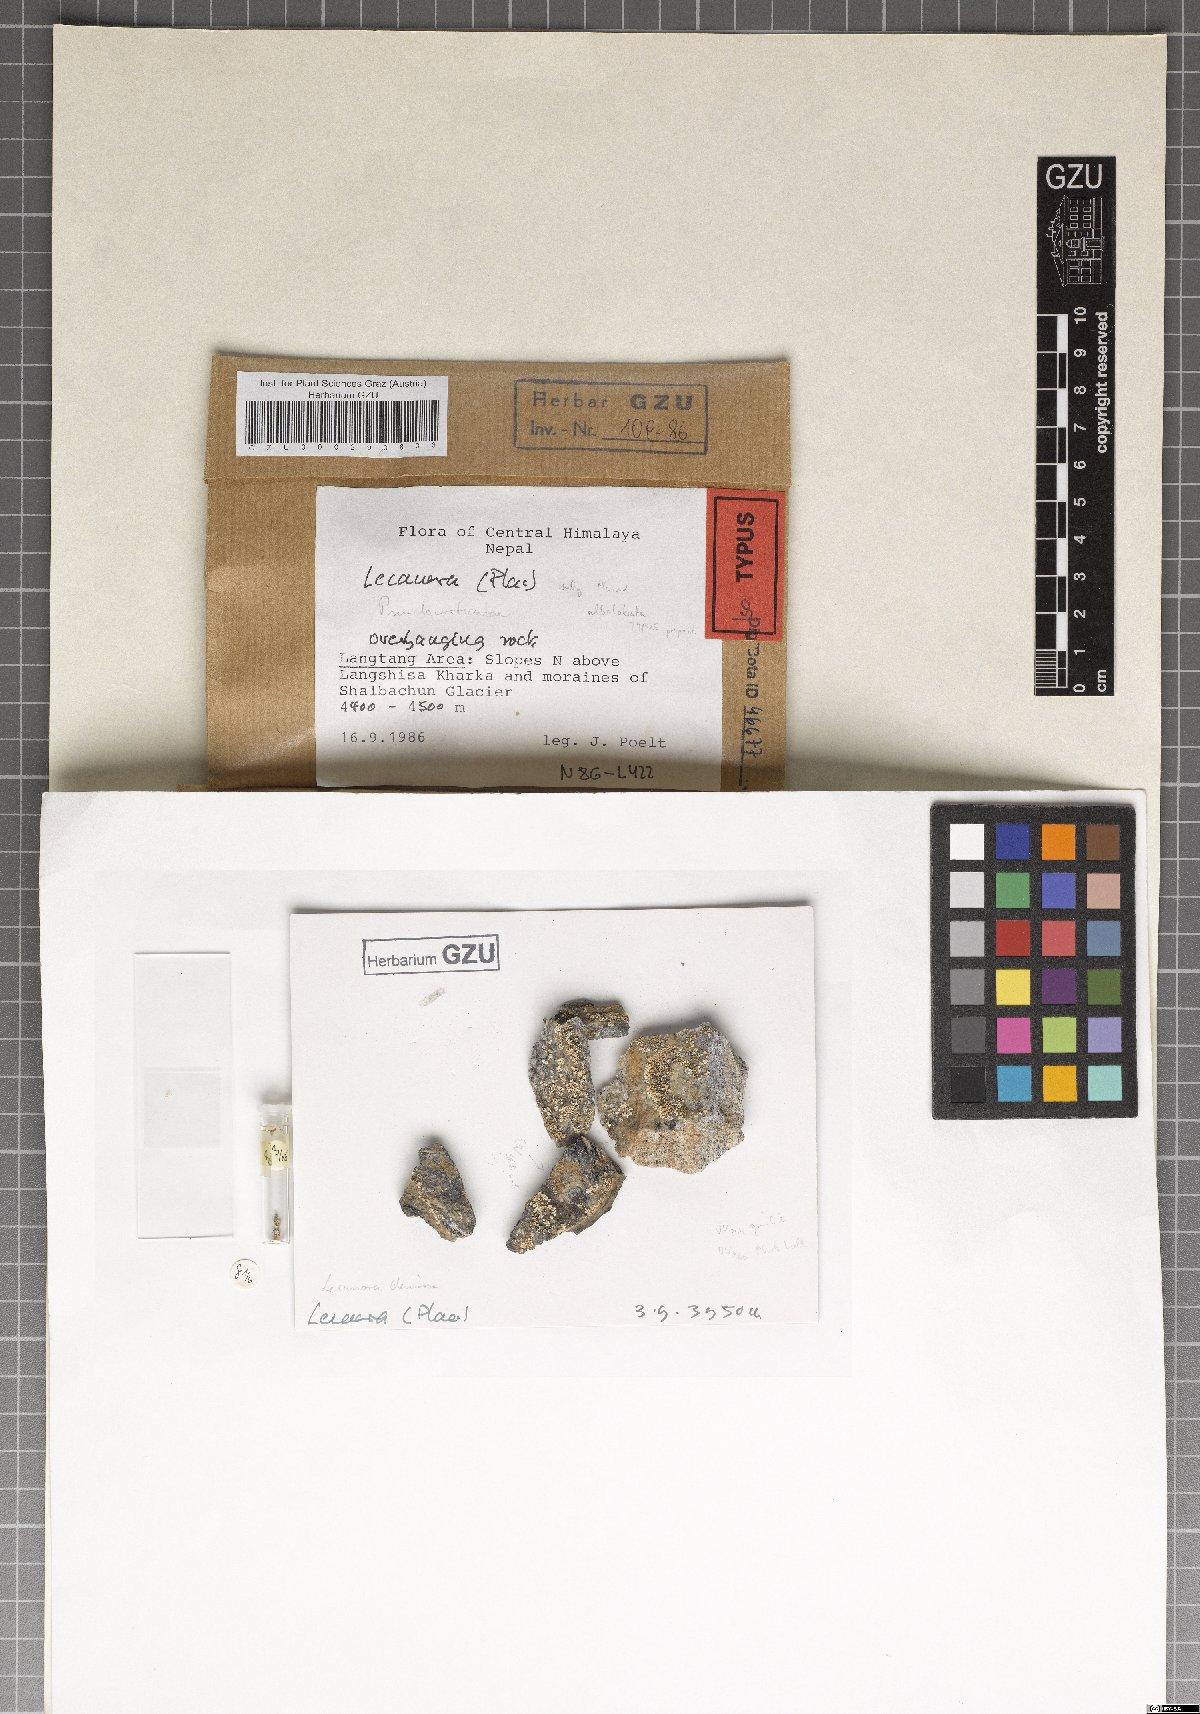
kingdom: Fungi
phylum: Ascomycota
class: Lecanoromycetes
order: Lecanorales
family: Lecanoraceae
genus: Lecanora
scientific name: Lecanora kirra
